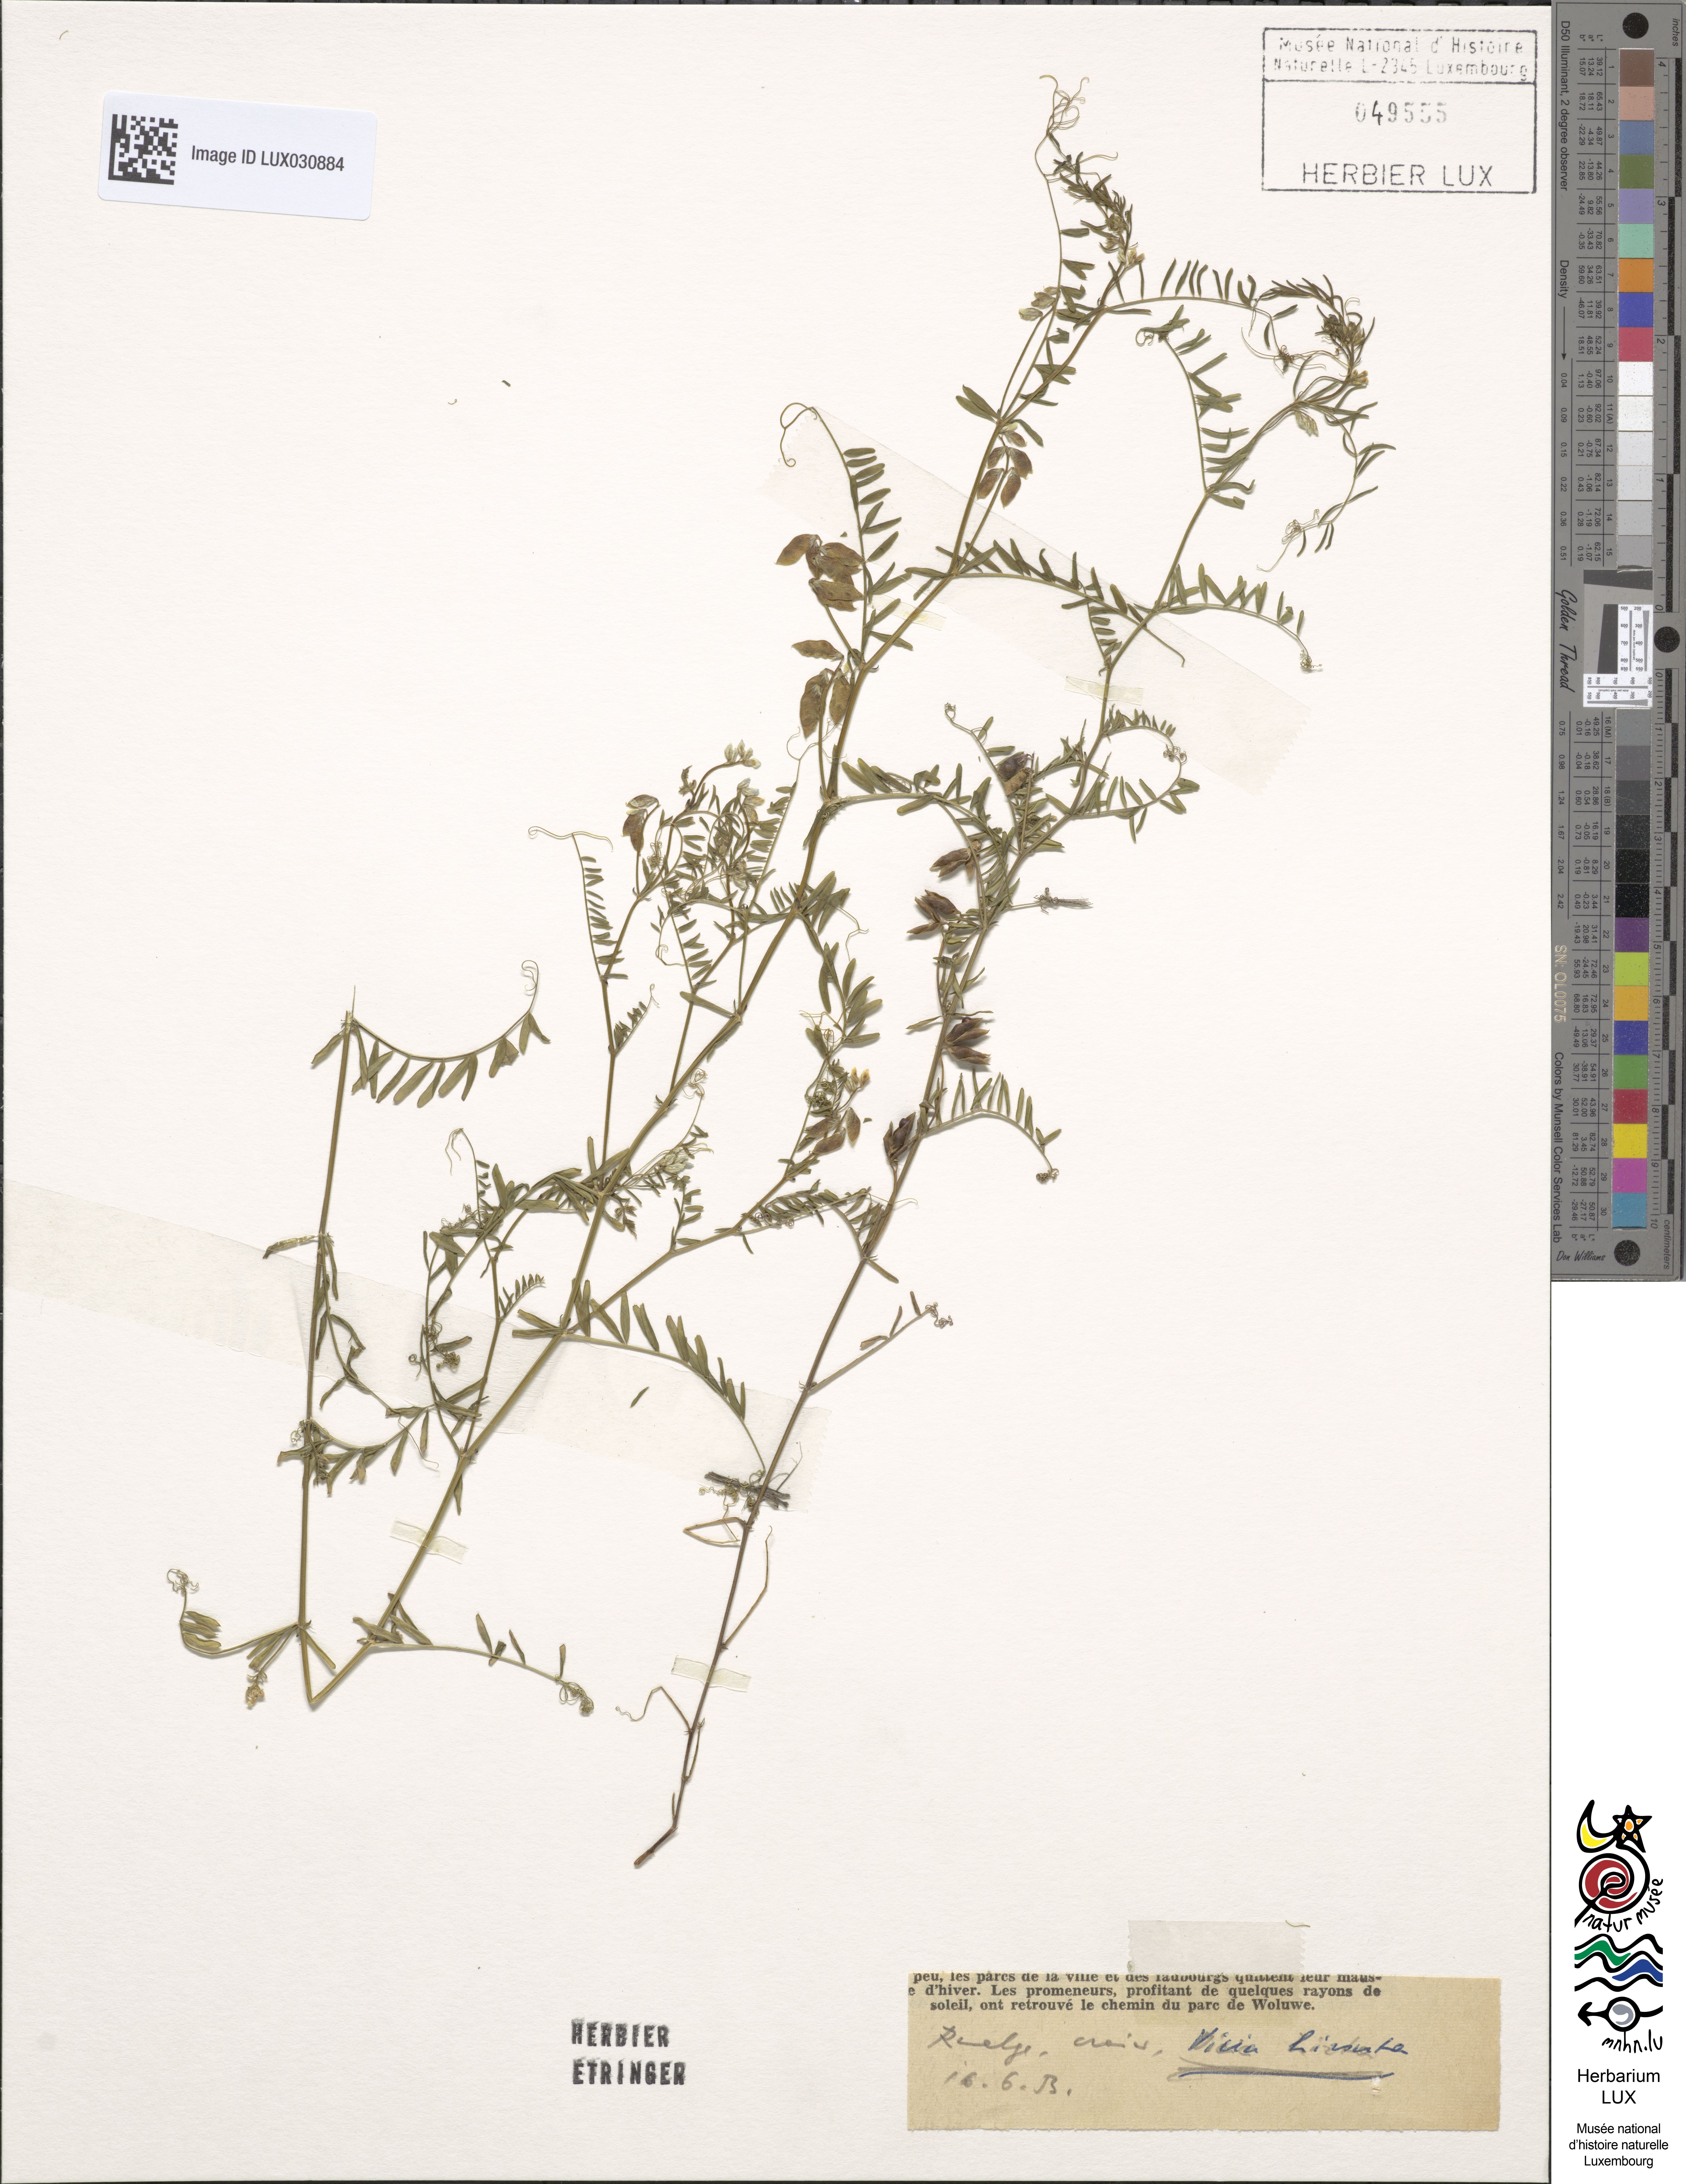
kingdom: Plantae
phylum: Tracheophyta
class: Magnoliopsida
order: Fabales
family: Fabaceae
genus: Vicia
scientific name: Vicia hirsuta
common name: Tiny vetch
